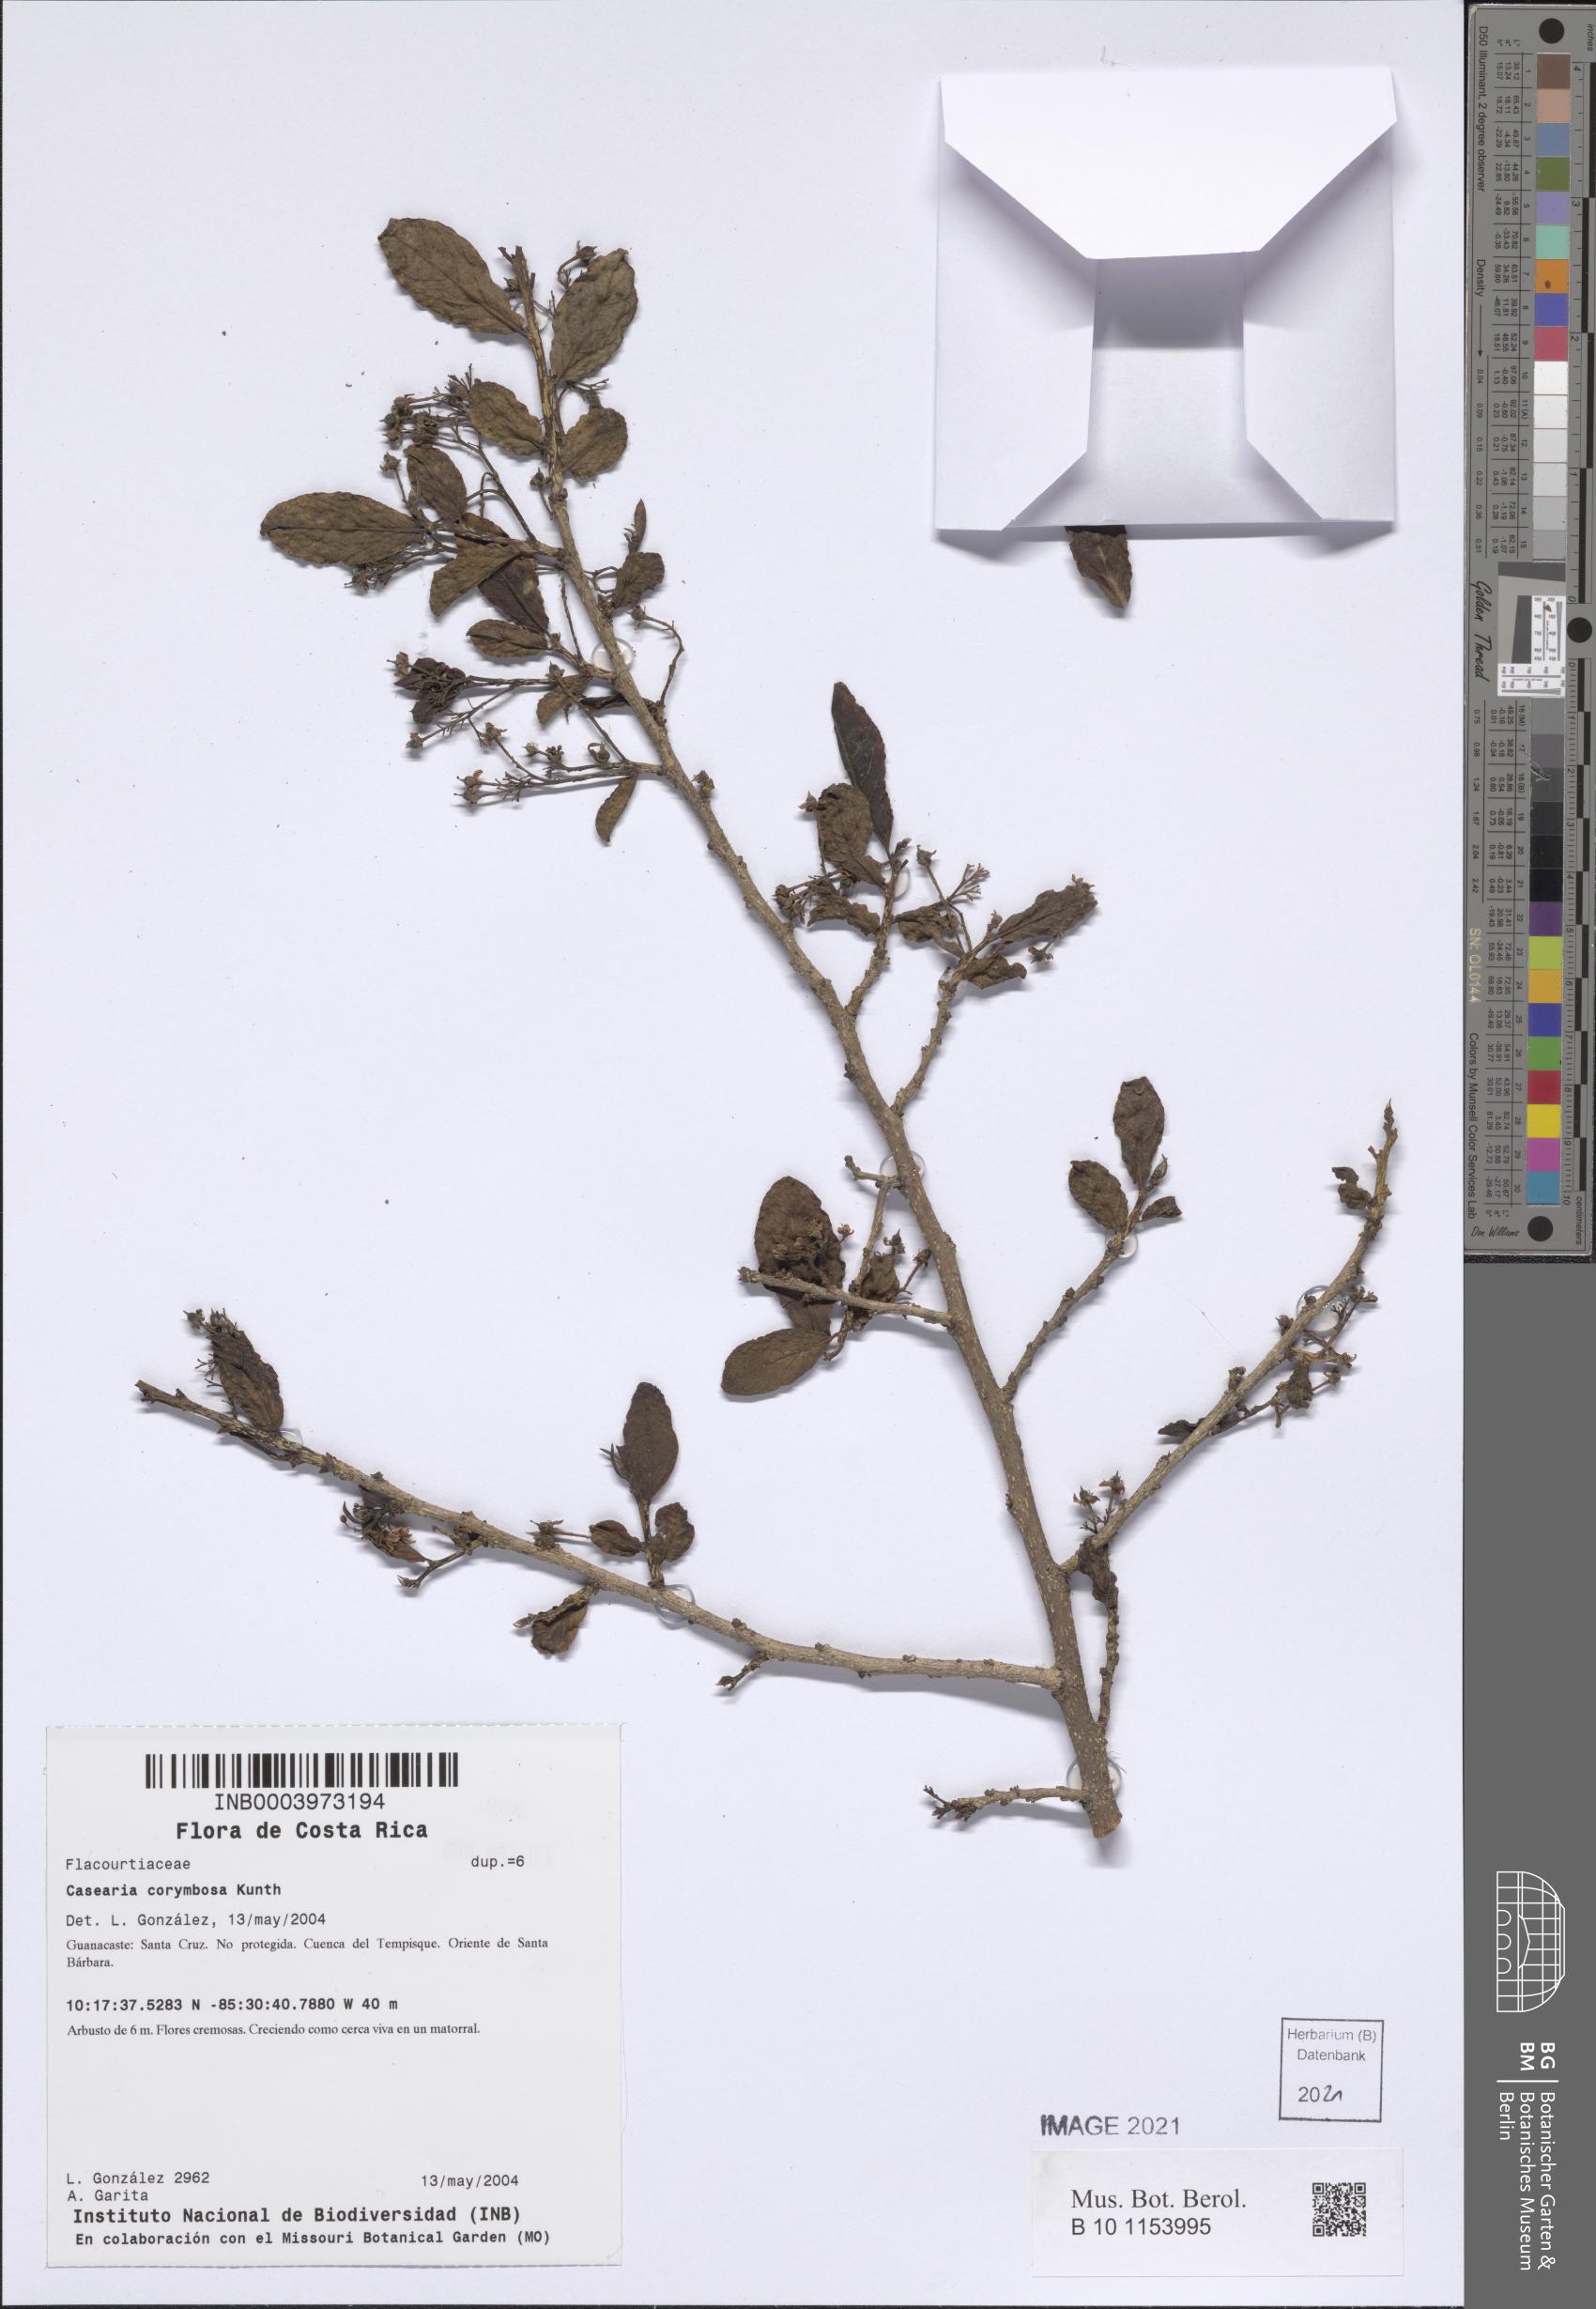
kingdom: Plantae
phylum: Tracheophyta
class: Magnoliopsida
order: Malpighiales
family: Salicaceae
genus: Casearia
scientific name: Casearia corymbosa
